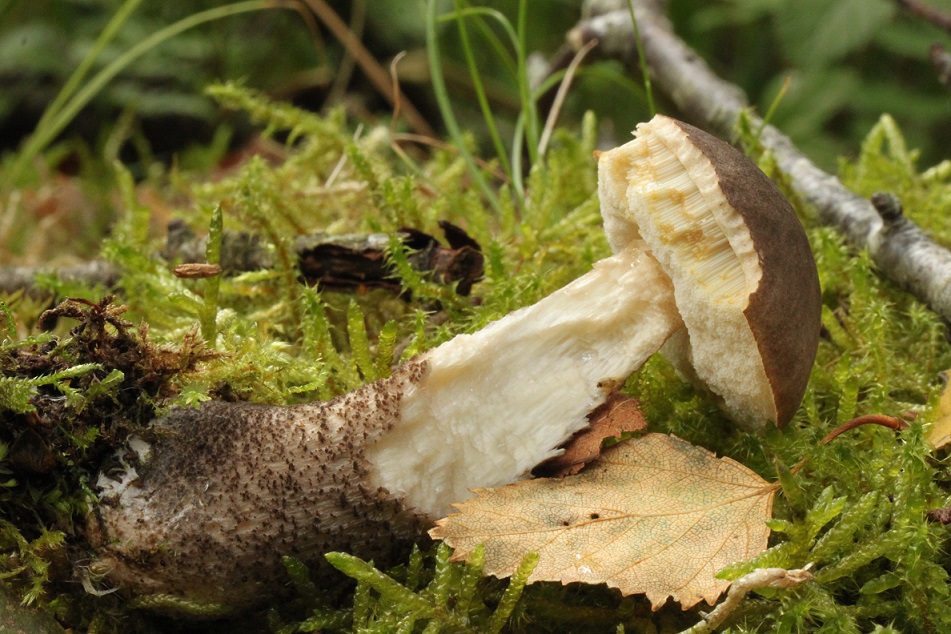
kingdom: Fungi
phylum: Basidiomycota
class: Agaricomycetes
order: Boletales
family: Boletaceae
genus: Leccinum
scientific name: Leccinum scabrum
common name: brun skælrørhat
